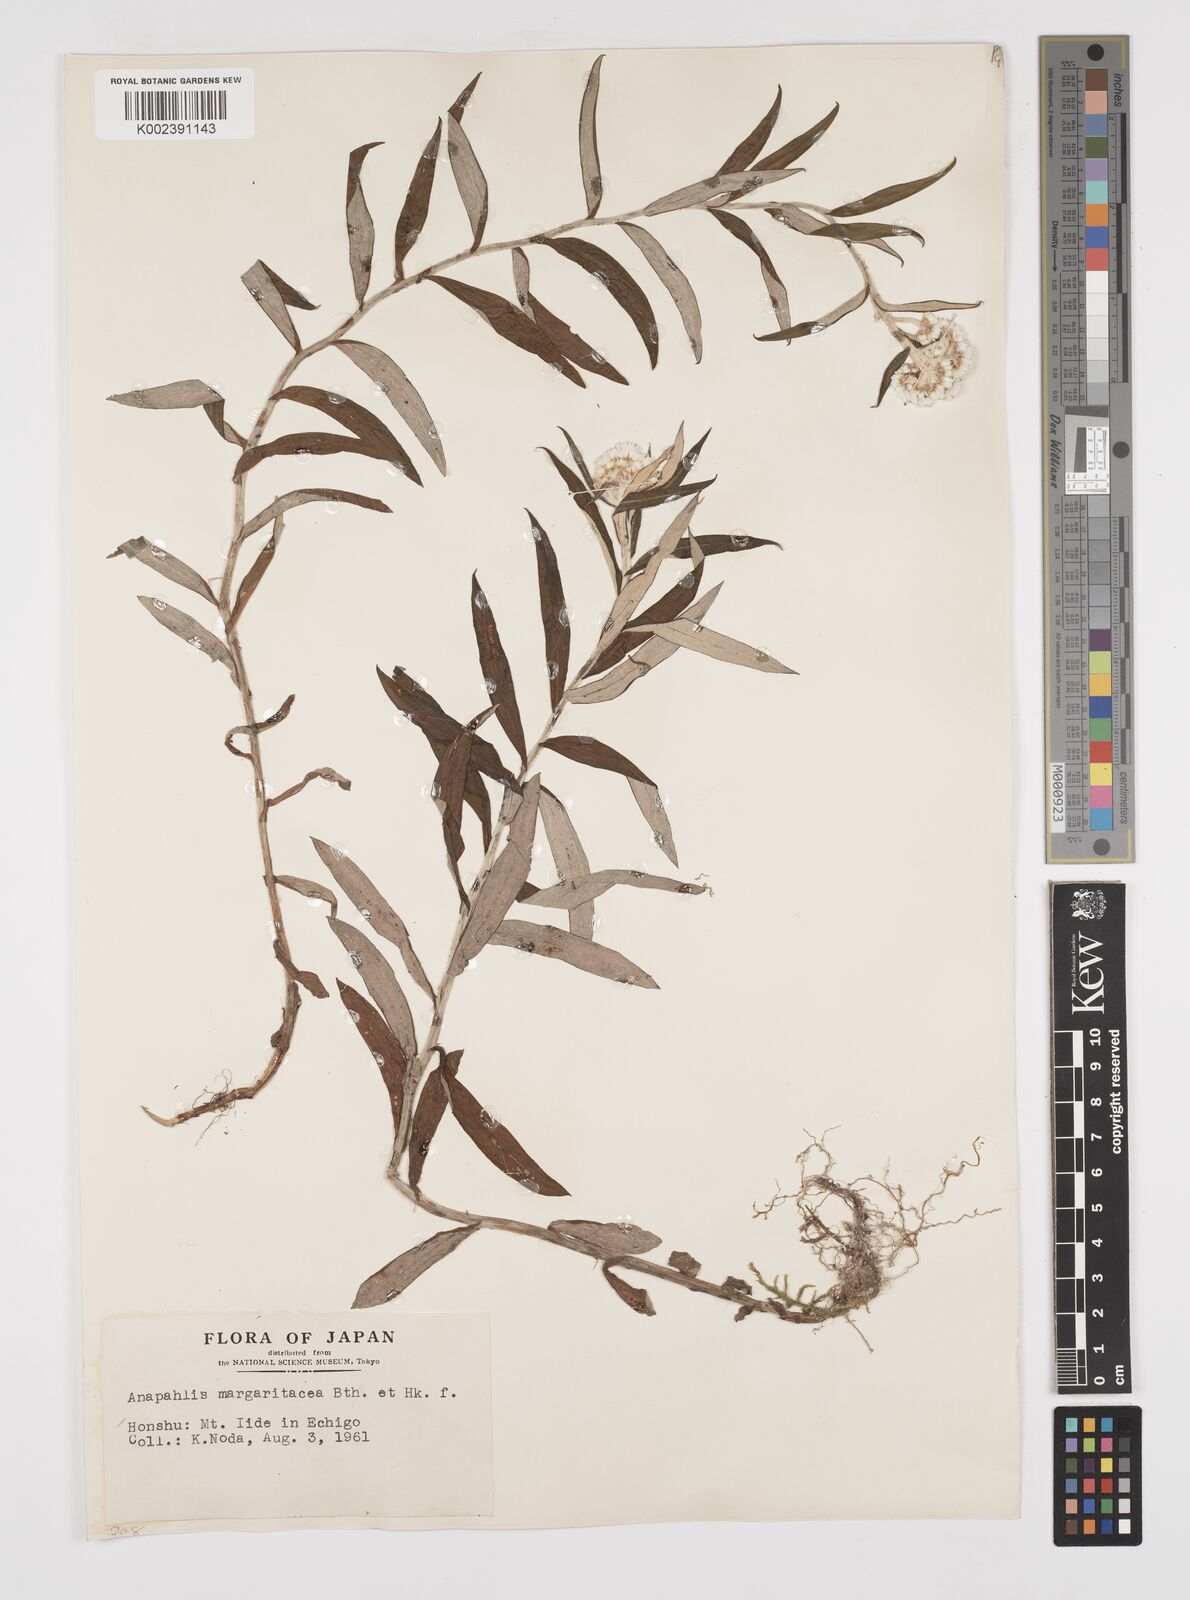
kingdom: Plantae
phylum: Tracheophyta
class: Magnoliopsida
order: Asterales
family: Asteraceae
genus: Anaphalis
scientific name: Anaphalis margaritacea
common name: Pearly everlasting
